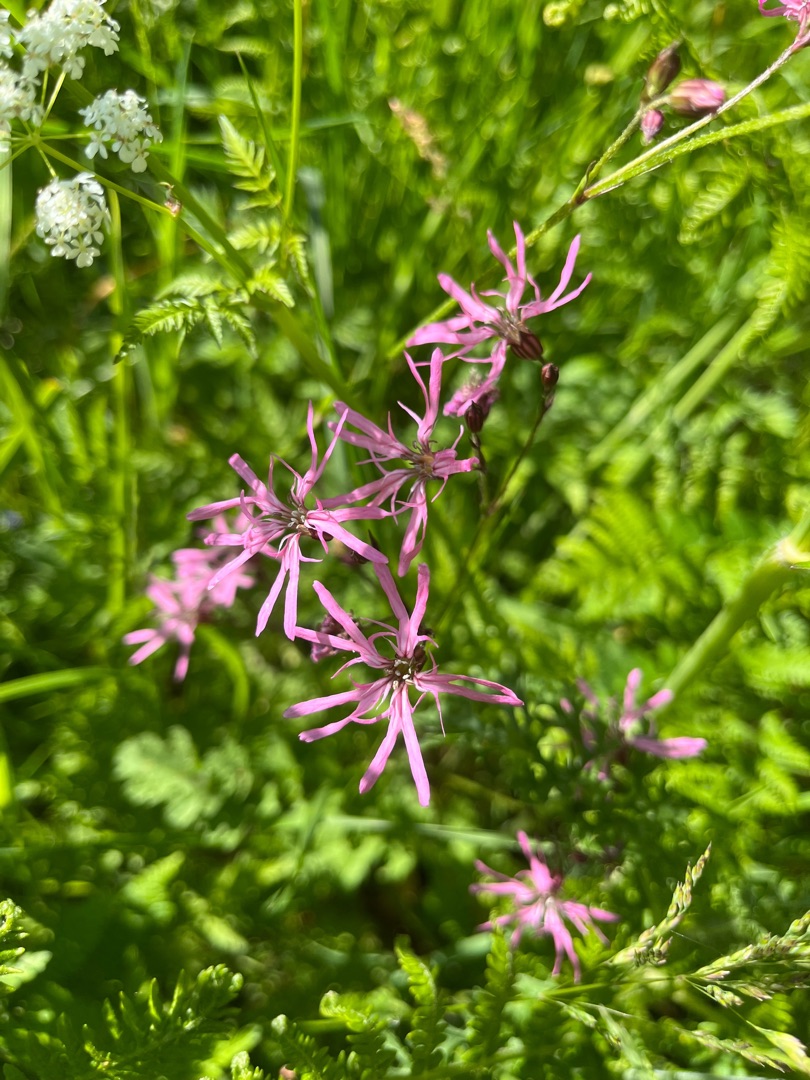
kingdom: Plantae
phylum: Tracheophyta
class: Magnoliopsida
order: Caryophyllales
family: Caryophyllaceae
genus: Silene
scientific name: Silene flos-cuculi
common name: Trævlekrone
